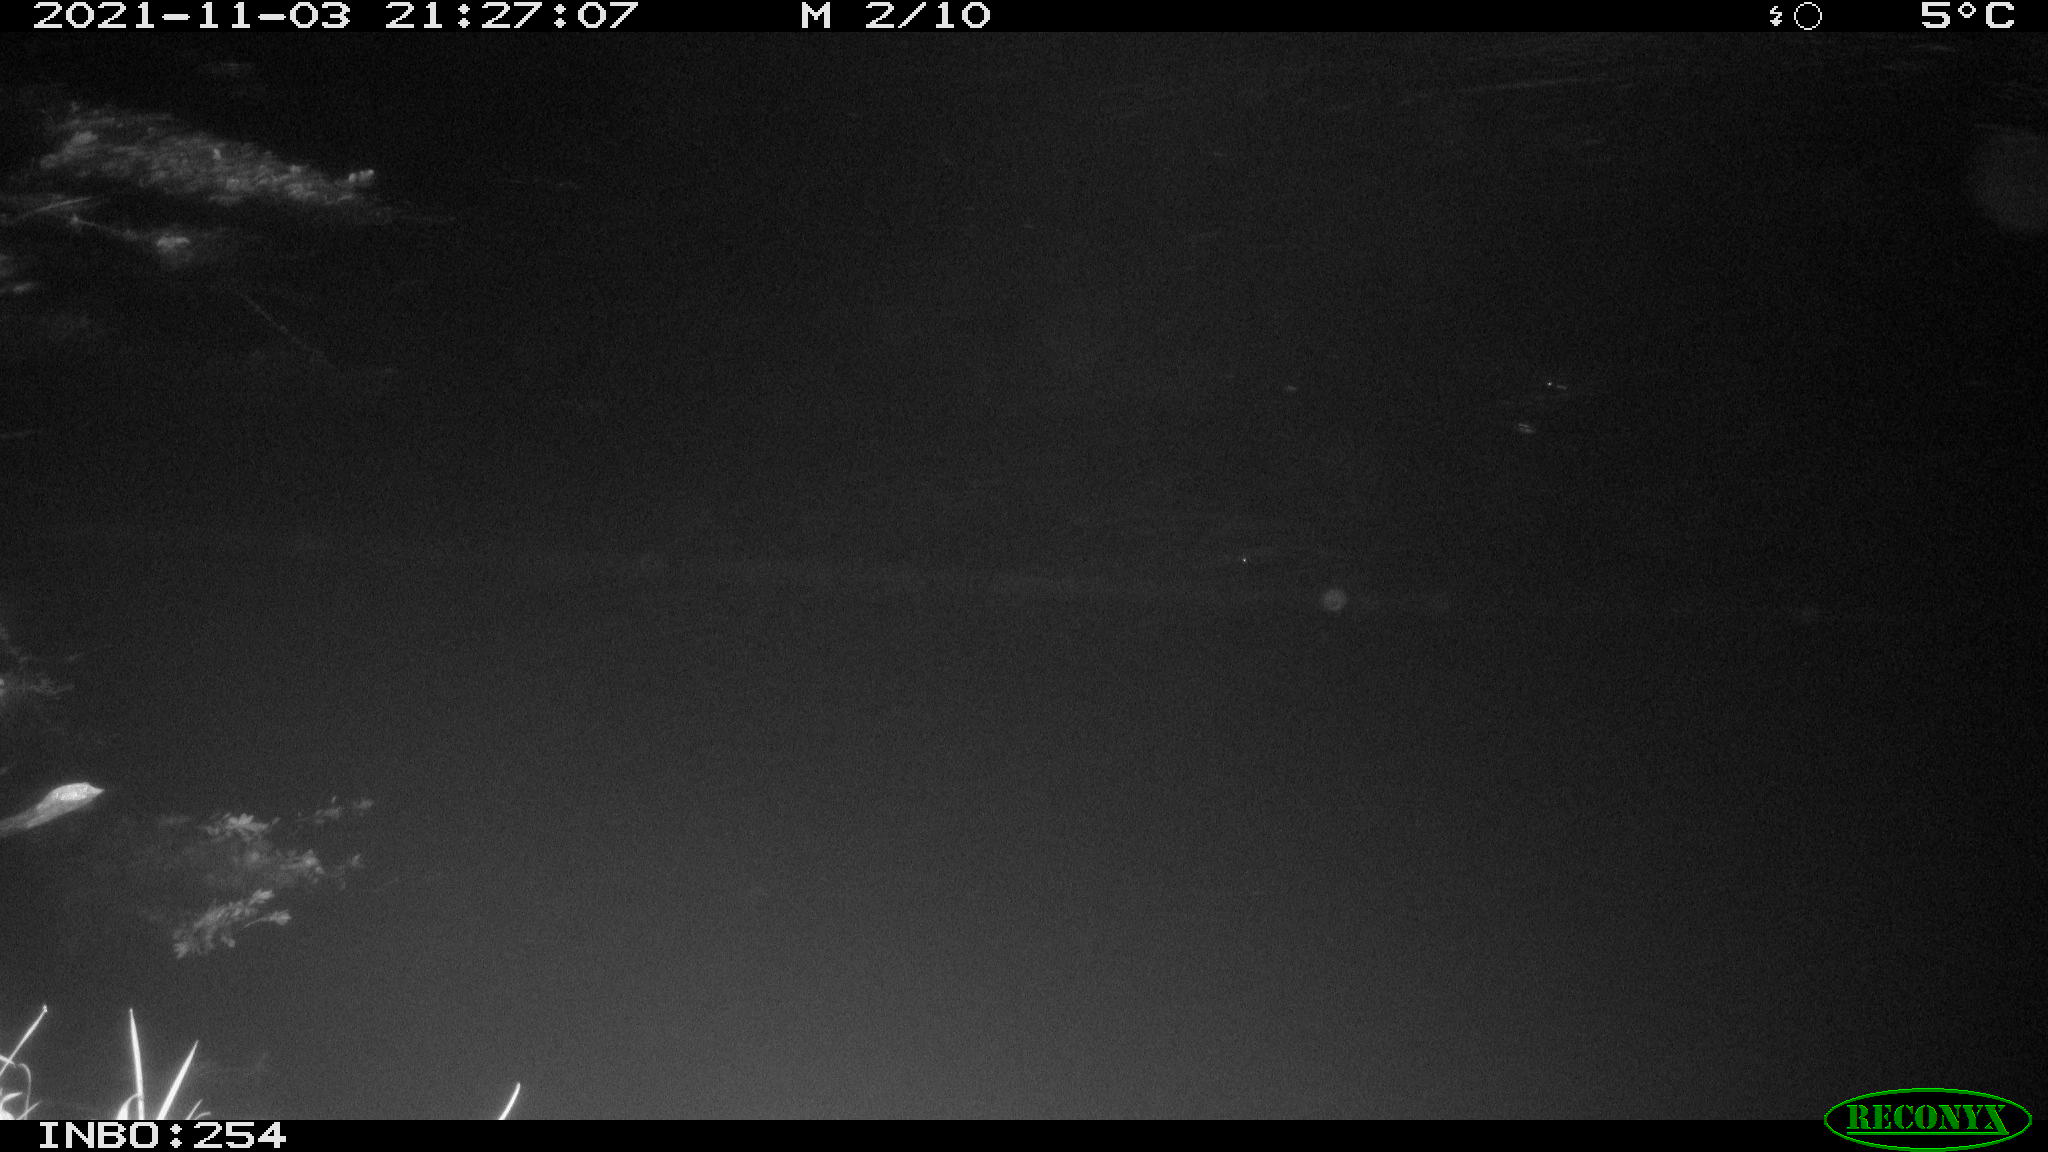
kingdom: Animalia
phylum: Chordata
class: Mammalia
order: Rodentia
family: Muridae
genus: Rattus
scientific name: Rattus norvegicus
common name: Brown rat
